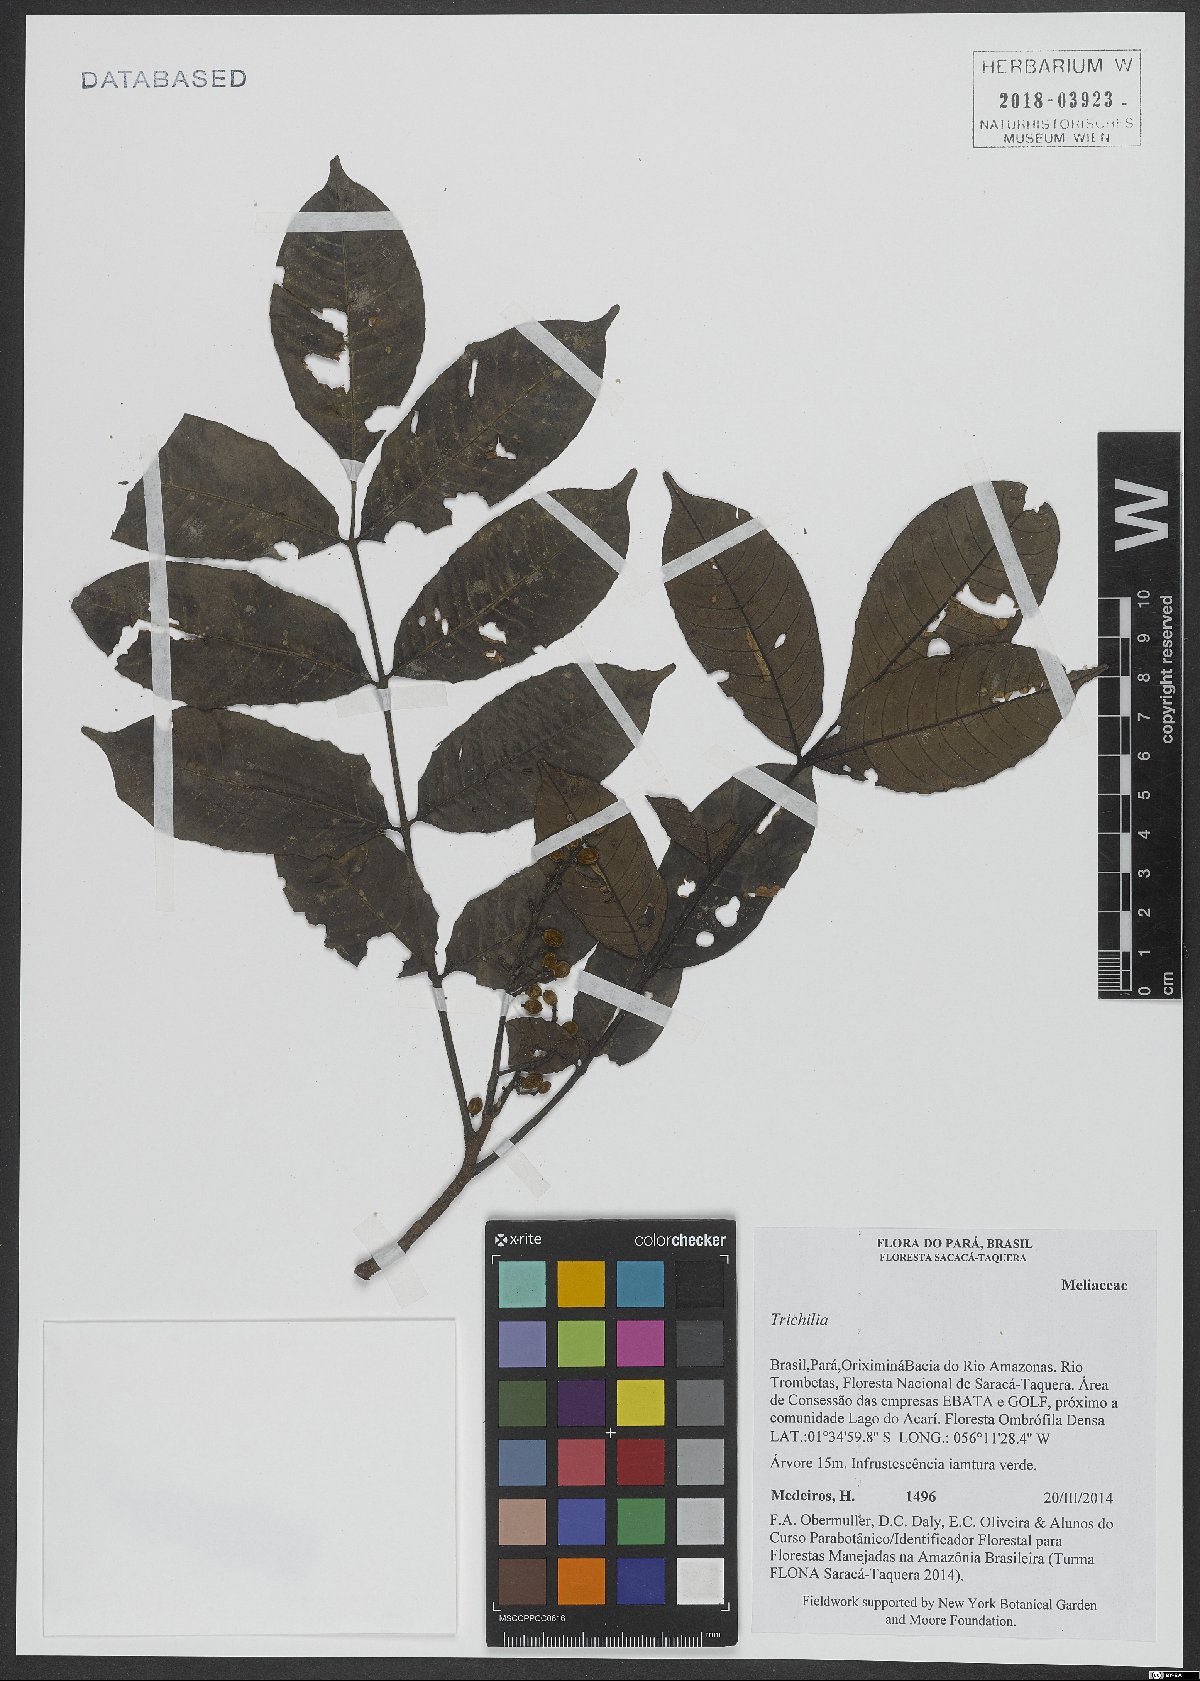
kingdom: Plantae
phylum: Tracheophyta
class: Magnoliopsida
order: Sapindales
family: Meliaceae
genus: Trichilia
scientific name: Trichilia
